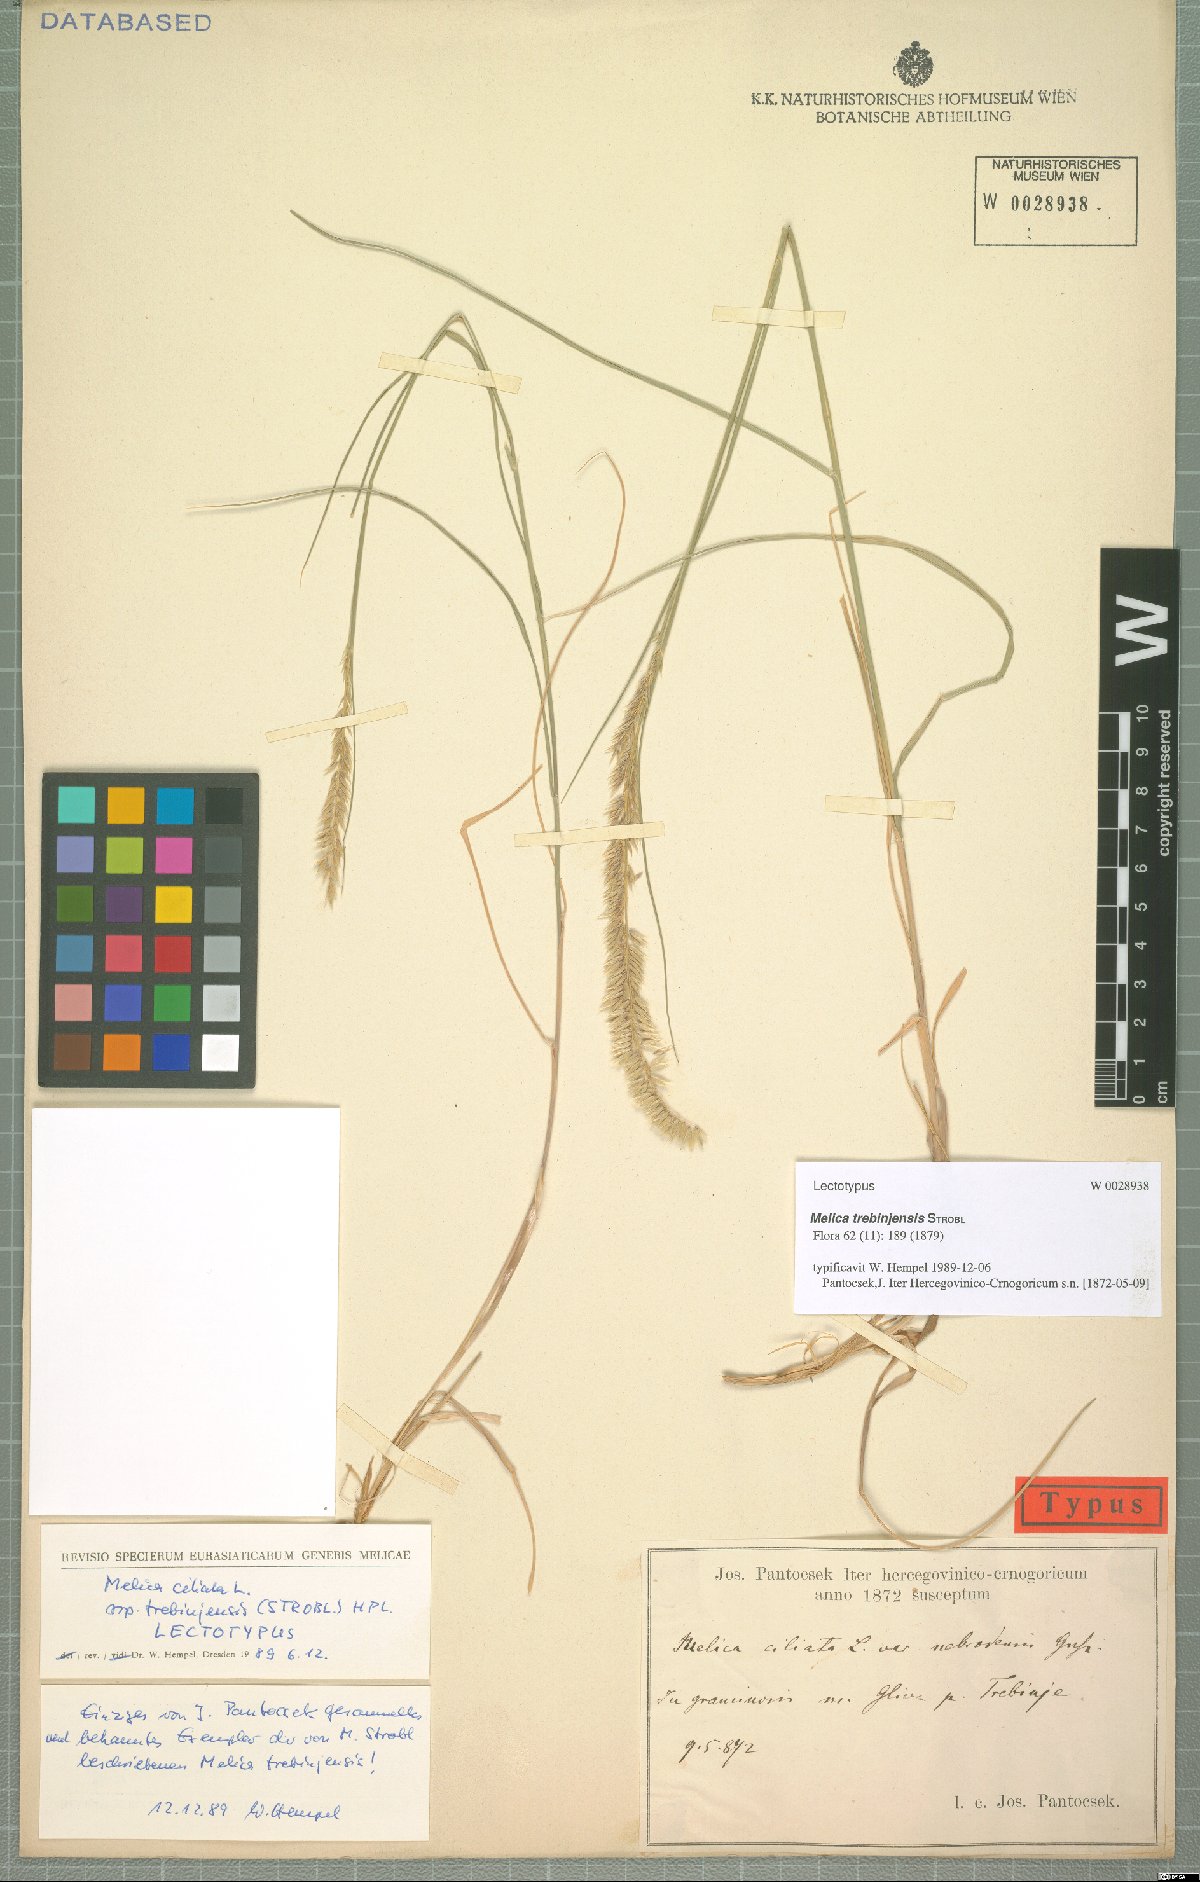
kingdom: Plantae
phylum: Tracheophyta
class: Liliopsida
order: Poales
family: Poaceae
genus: Melica
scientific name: Melica trebinjensis
